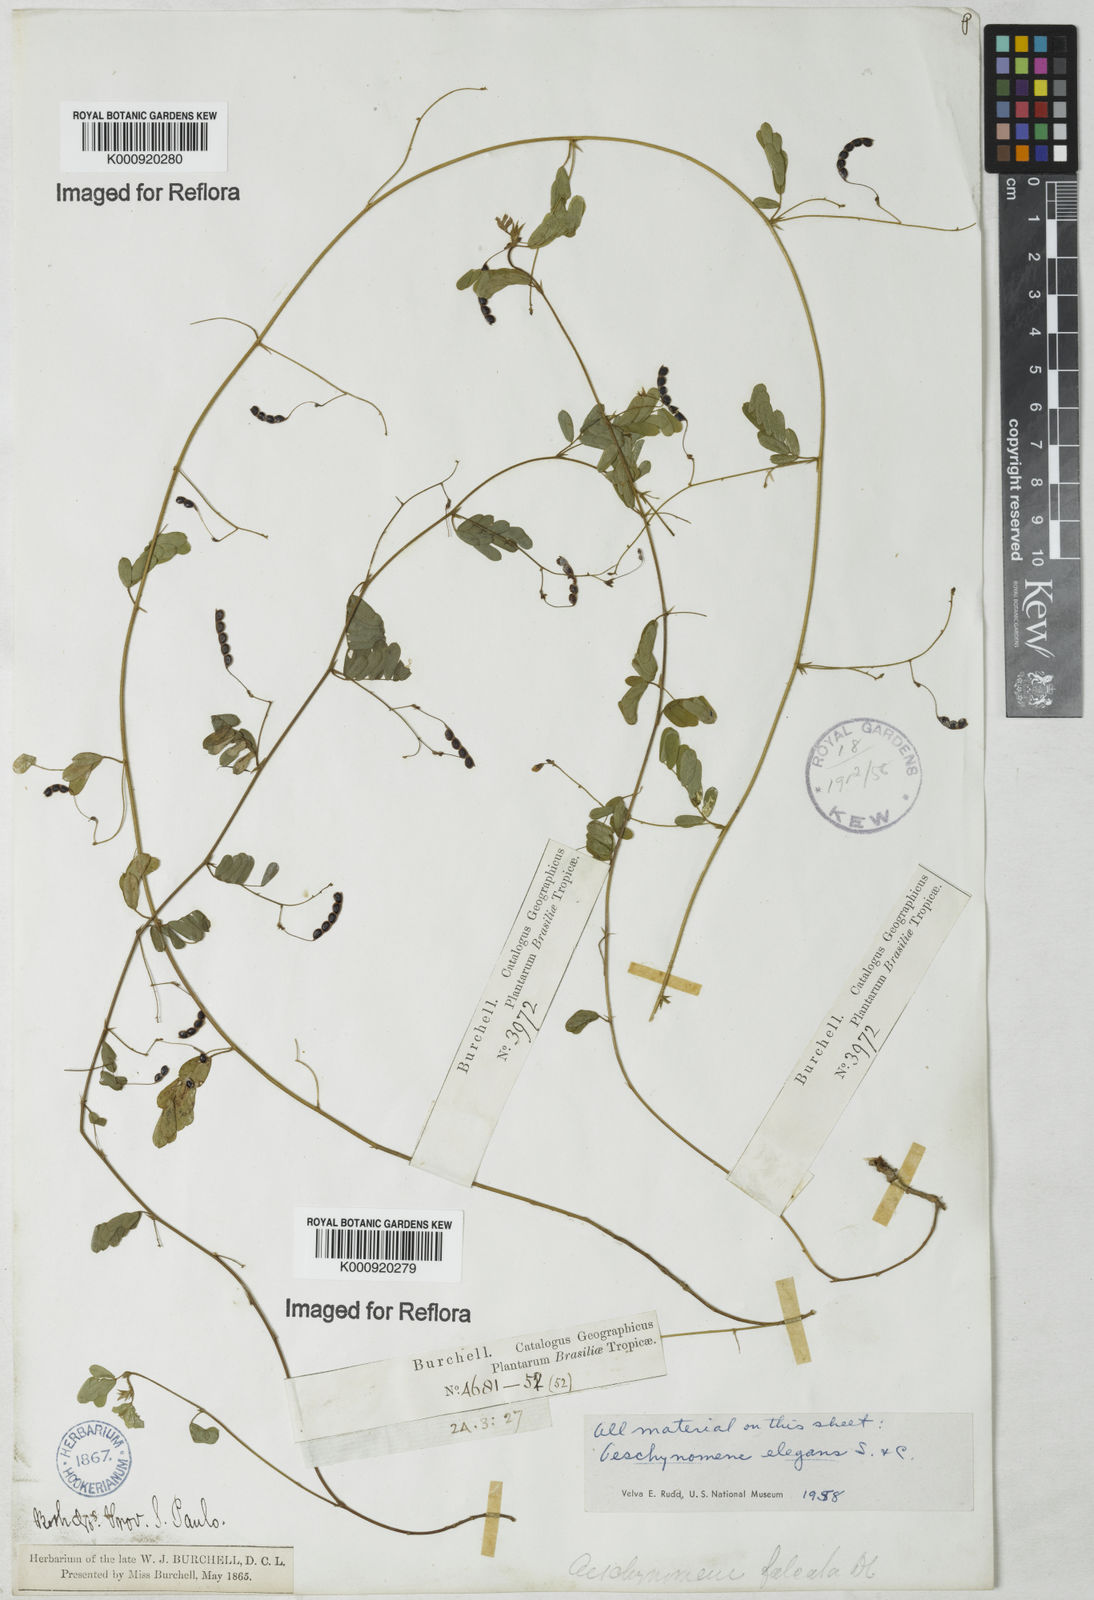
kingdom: Plantae
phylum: Tracheophyta
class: Magnoliopsida
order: Fabales
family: Fabaceae
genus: Ctenodon
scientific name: Ctenodon elegans
